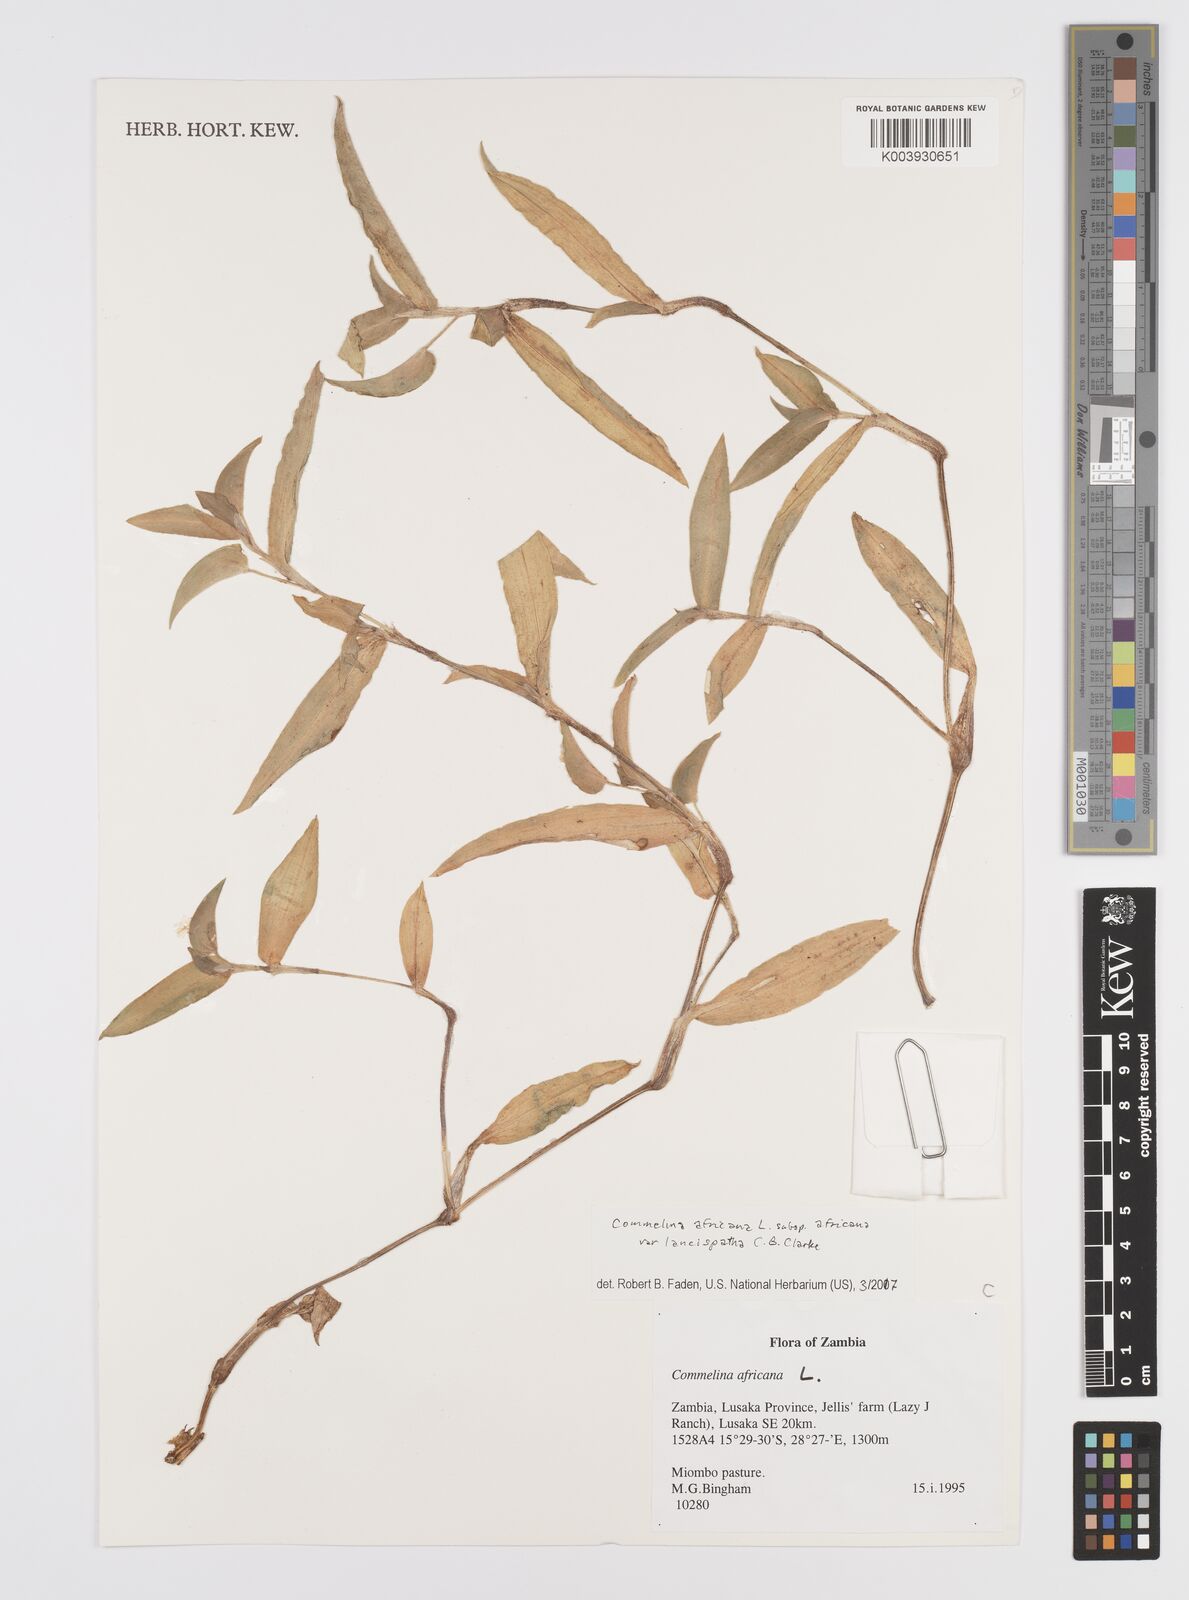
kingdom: Plantae
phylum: Tracheophyta
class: Liliopsida
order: Commelinales
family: Commelinaceae
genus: Commelina
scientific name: Commelina africana
